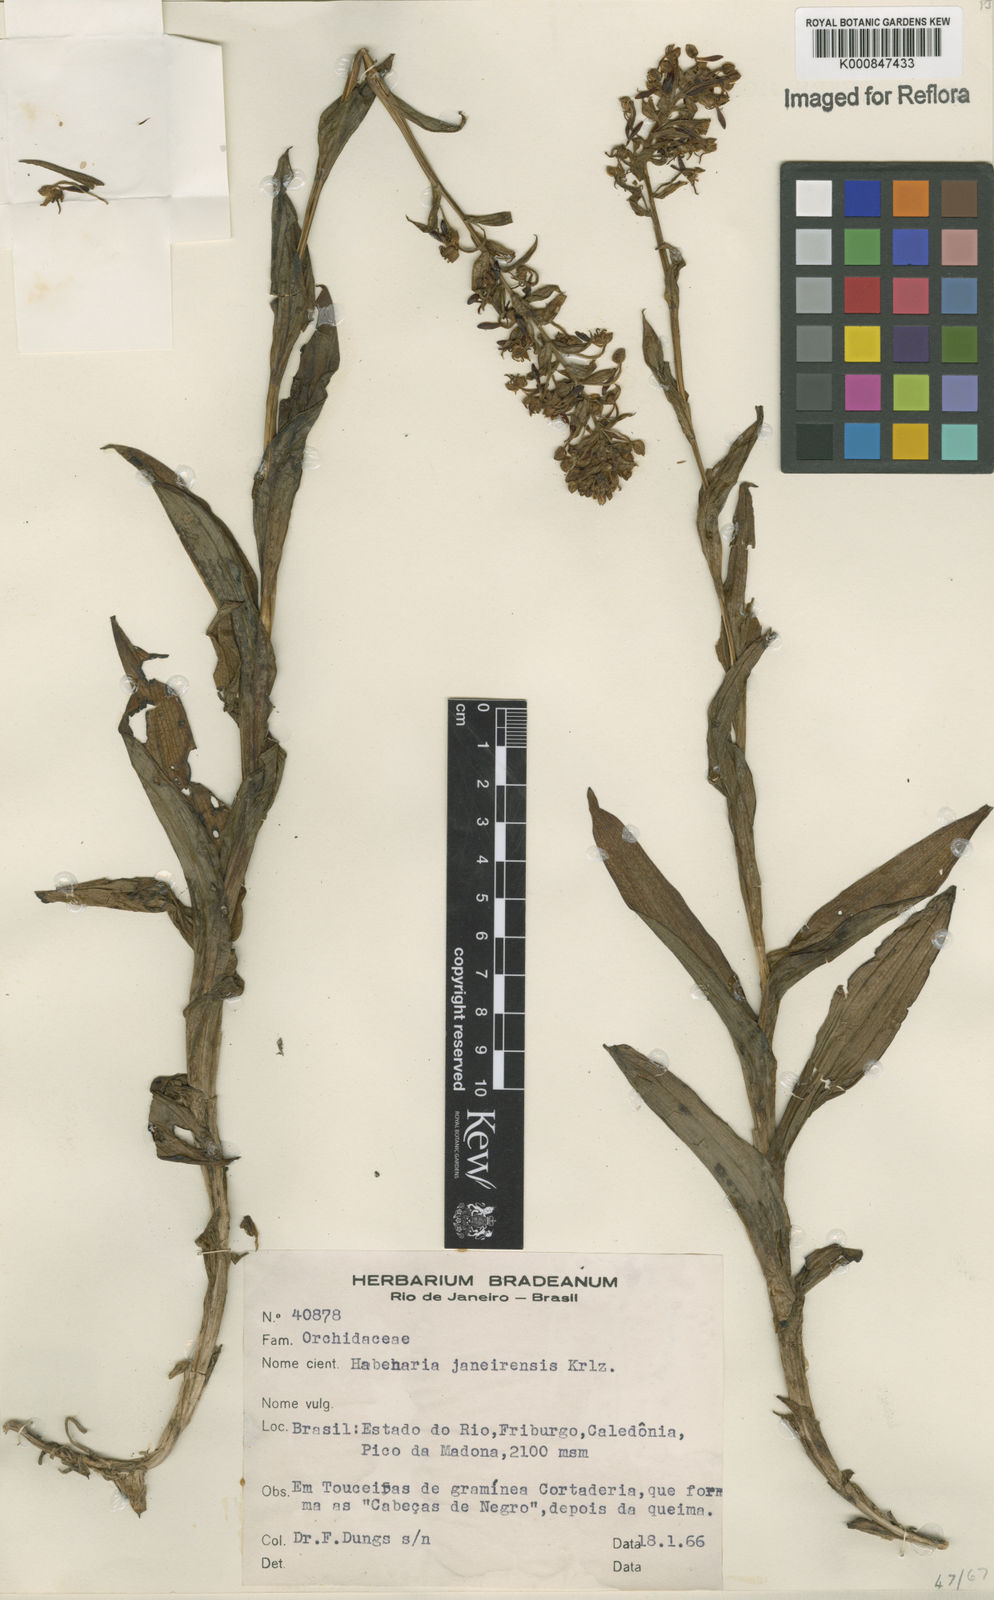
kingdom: Plantae
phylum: Tracheophyta
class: Liliopsida
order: Asparagales
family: Orchidaceae
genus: Habenaria
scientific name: Habenaria paranaensis
